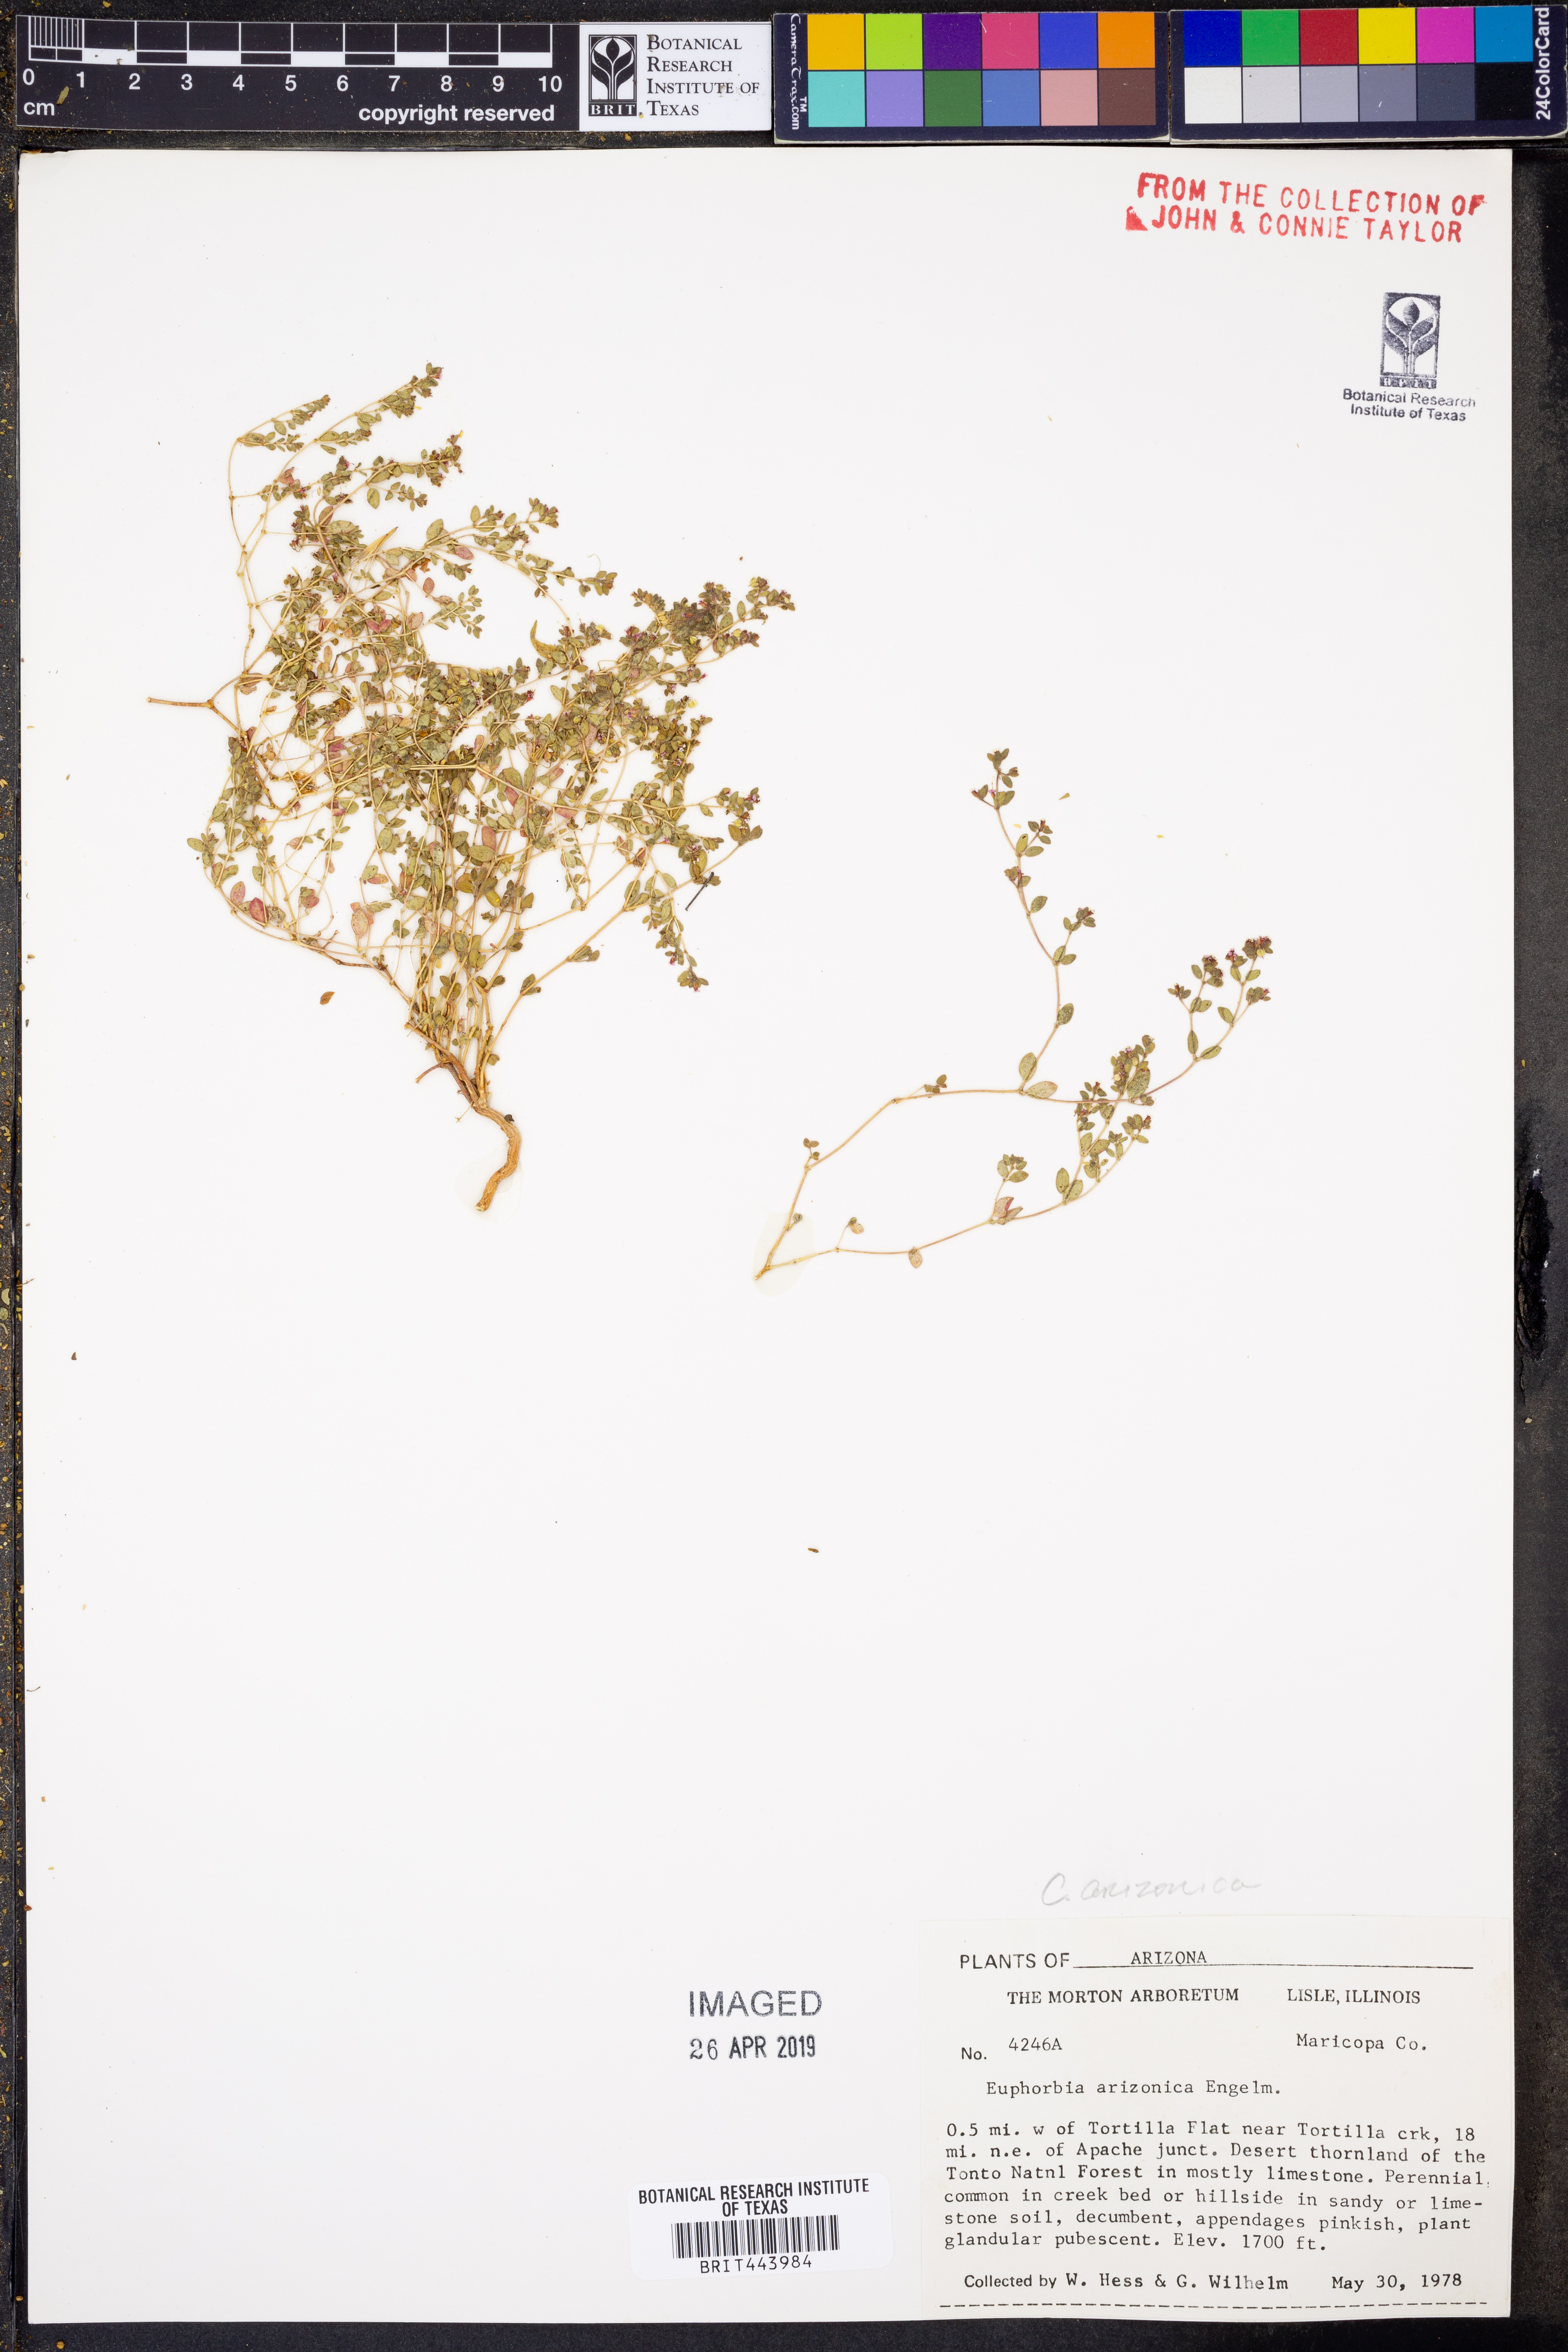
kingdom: Plantae
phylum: Tracheophyta
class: Magnoliopsida
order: Malpighiales
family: Euphorbiaceae
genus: Euphorbia
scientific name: Euphorbia arizonica
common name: Arizona spurge
